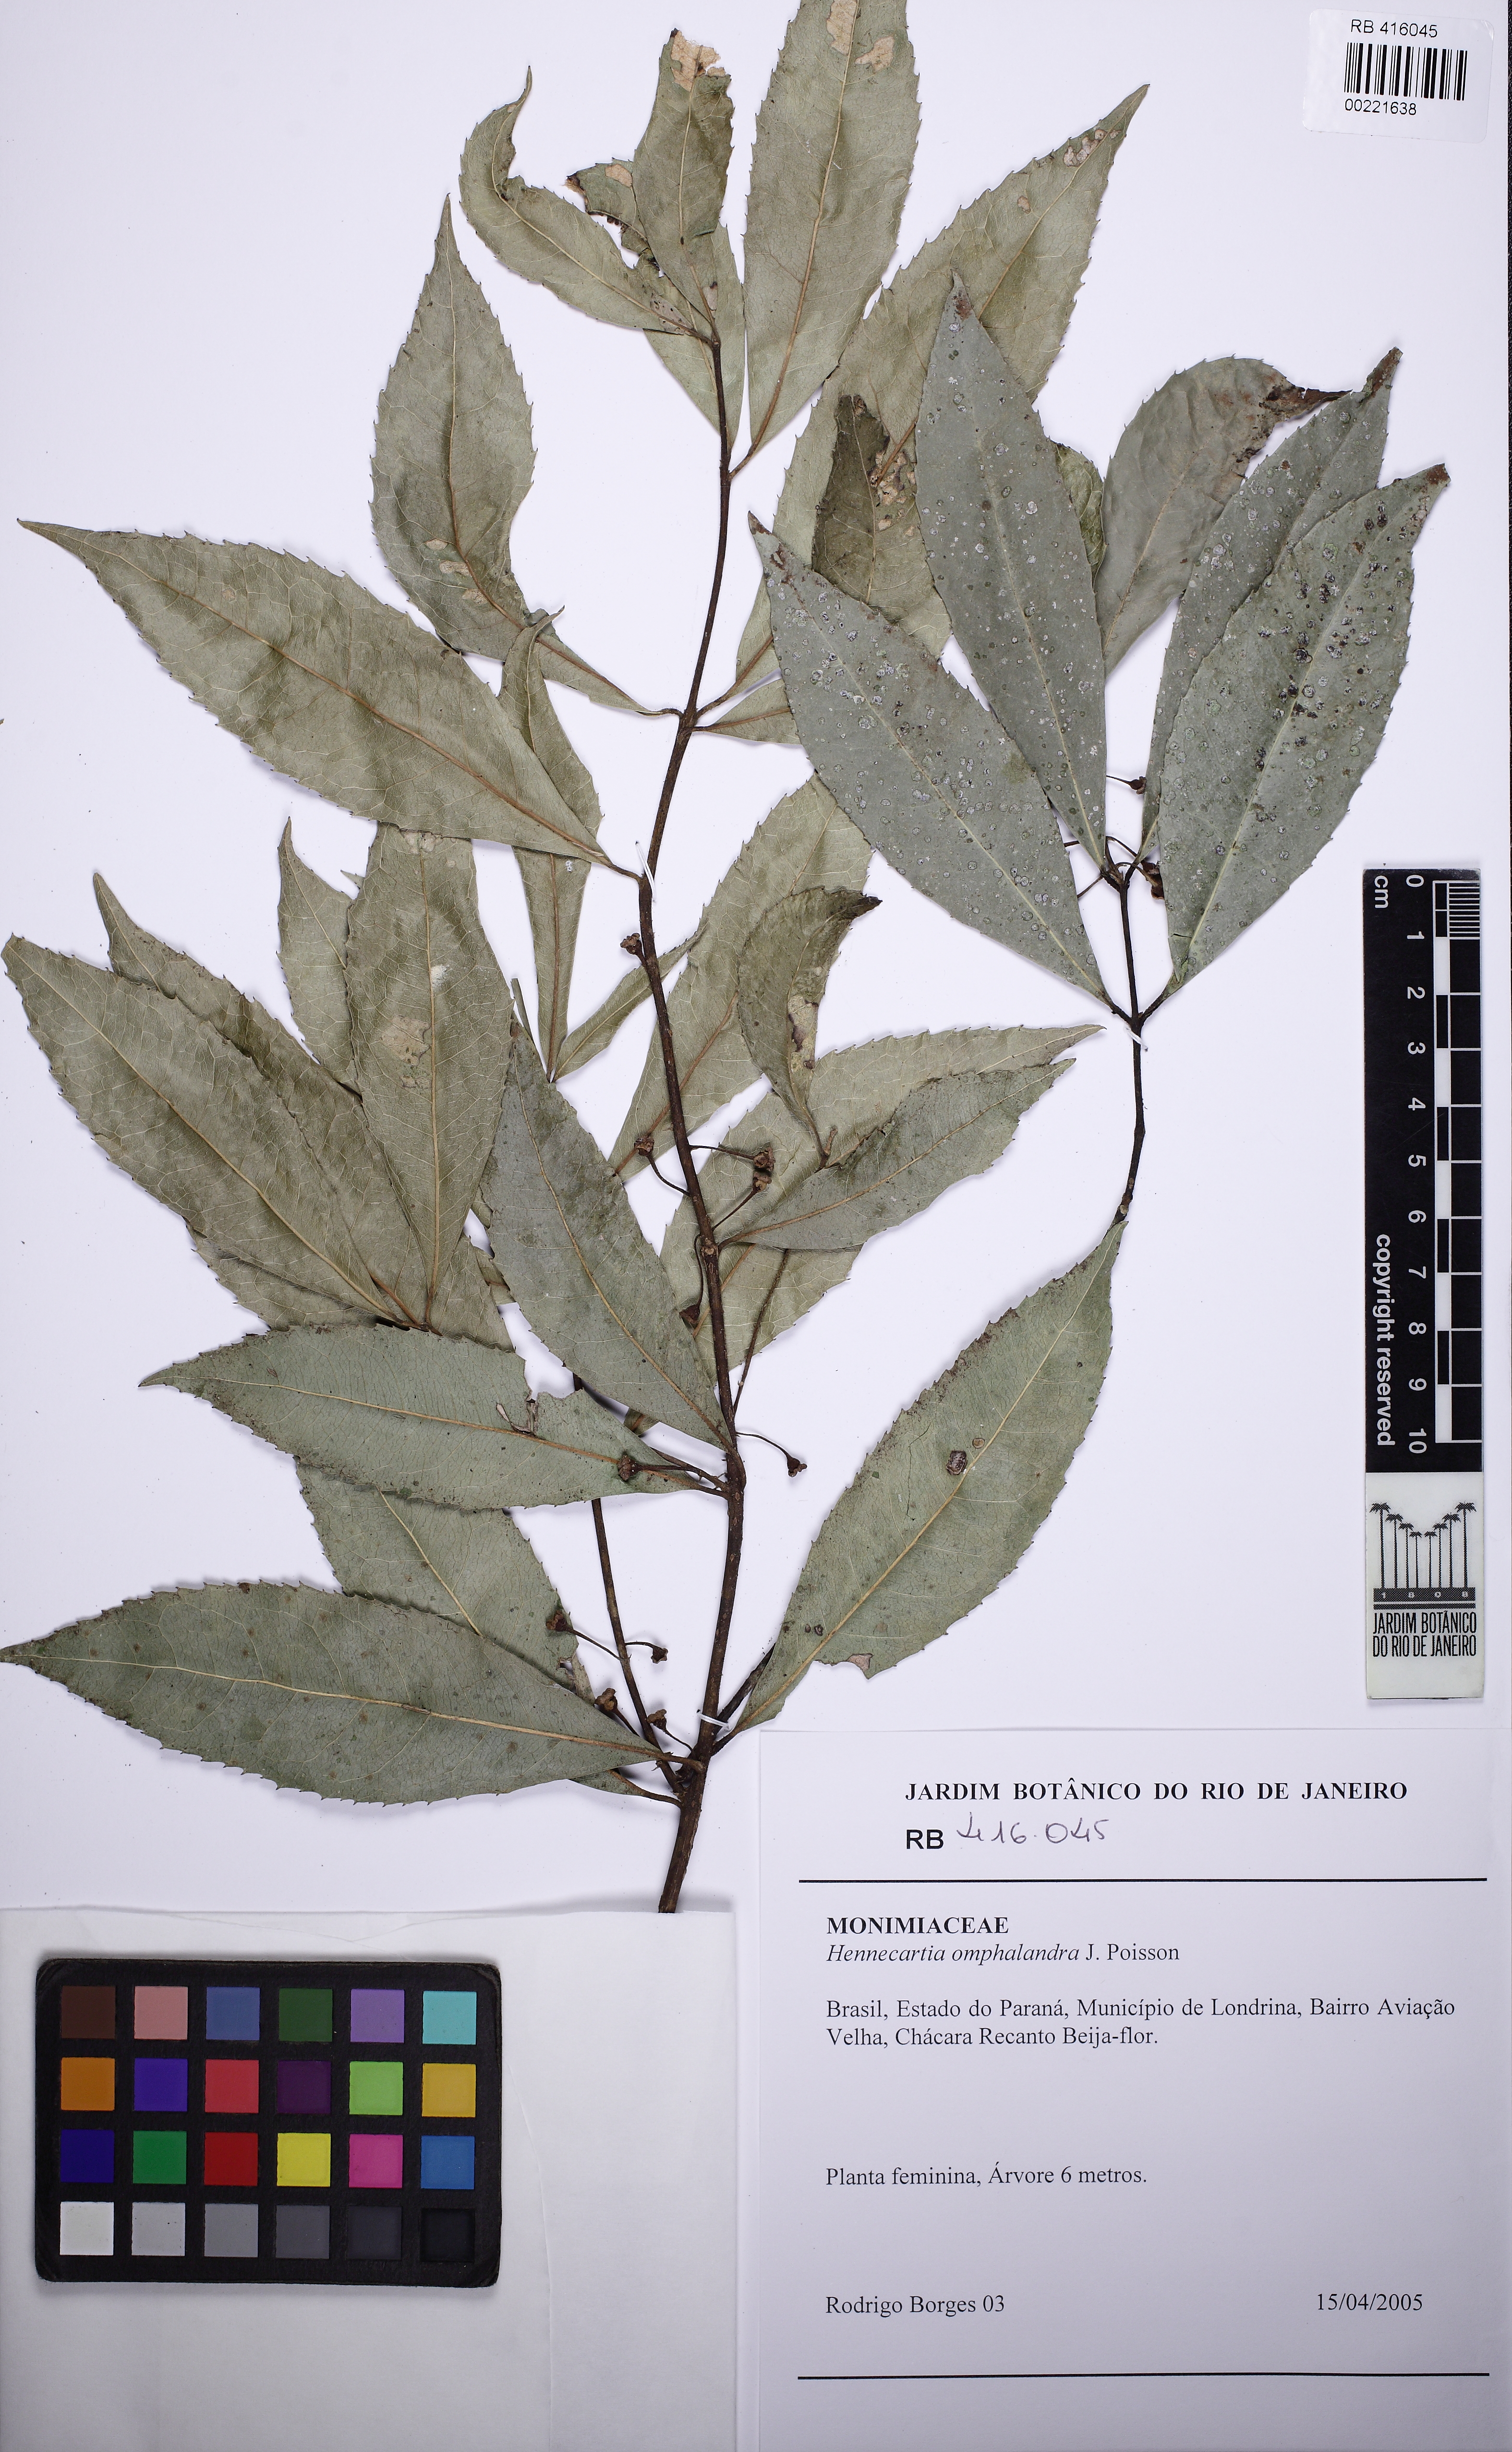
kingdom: Plantae
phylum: Tracheophyta
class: Magnoliopsida
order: Laurales
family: Monimiaceae
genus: Hennecartia
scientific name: Hennecartia omphalandra
